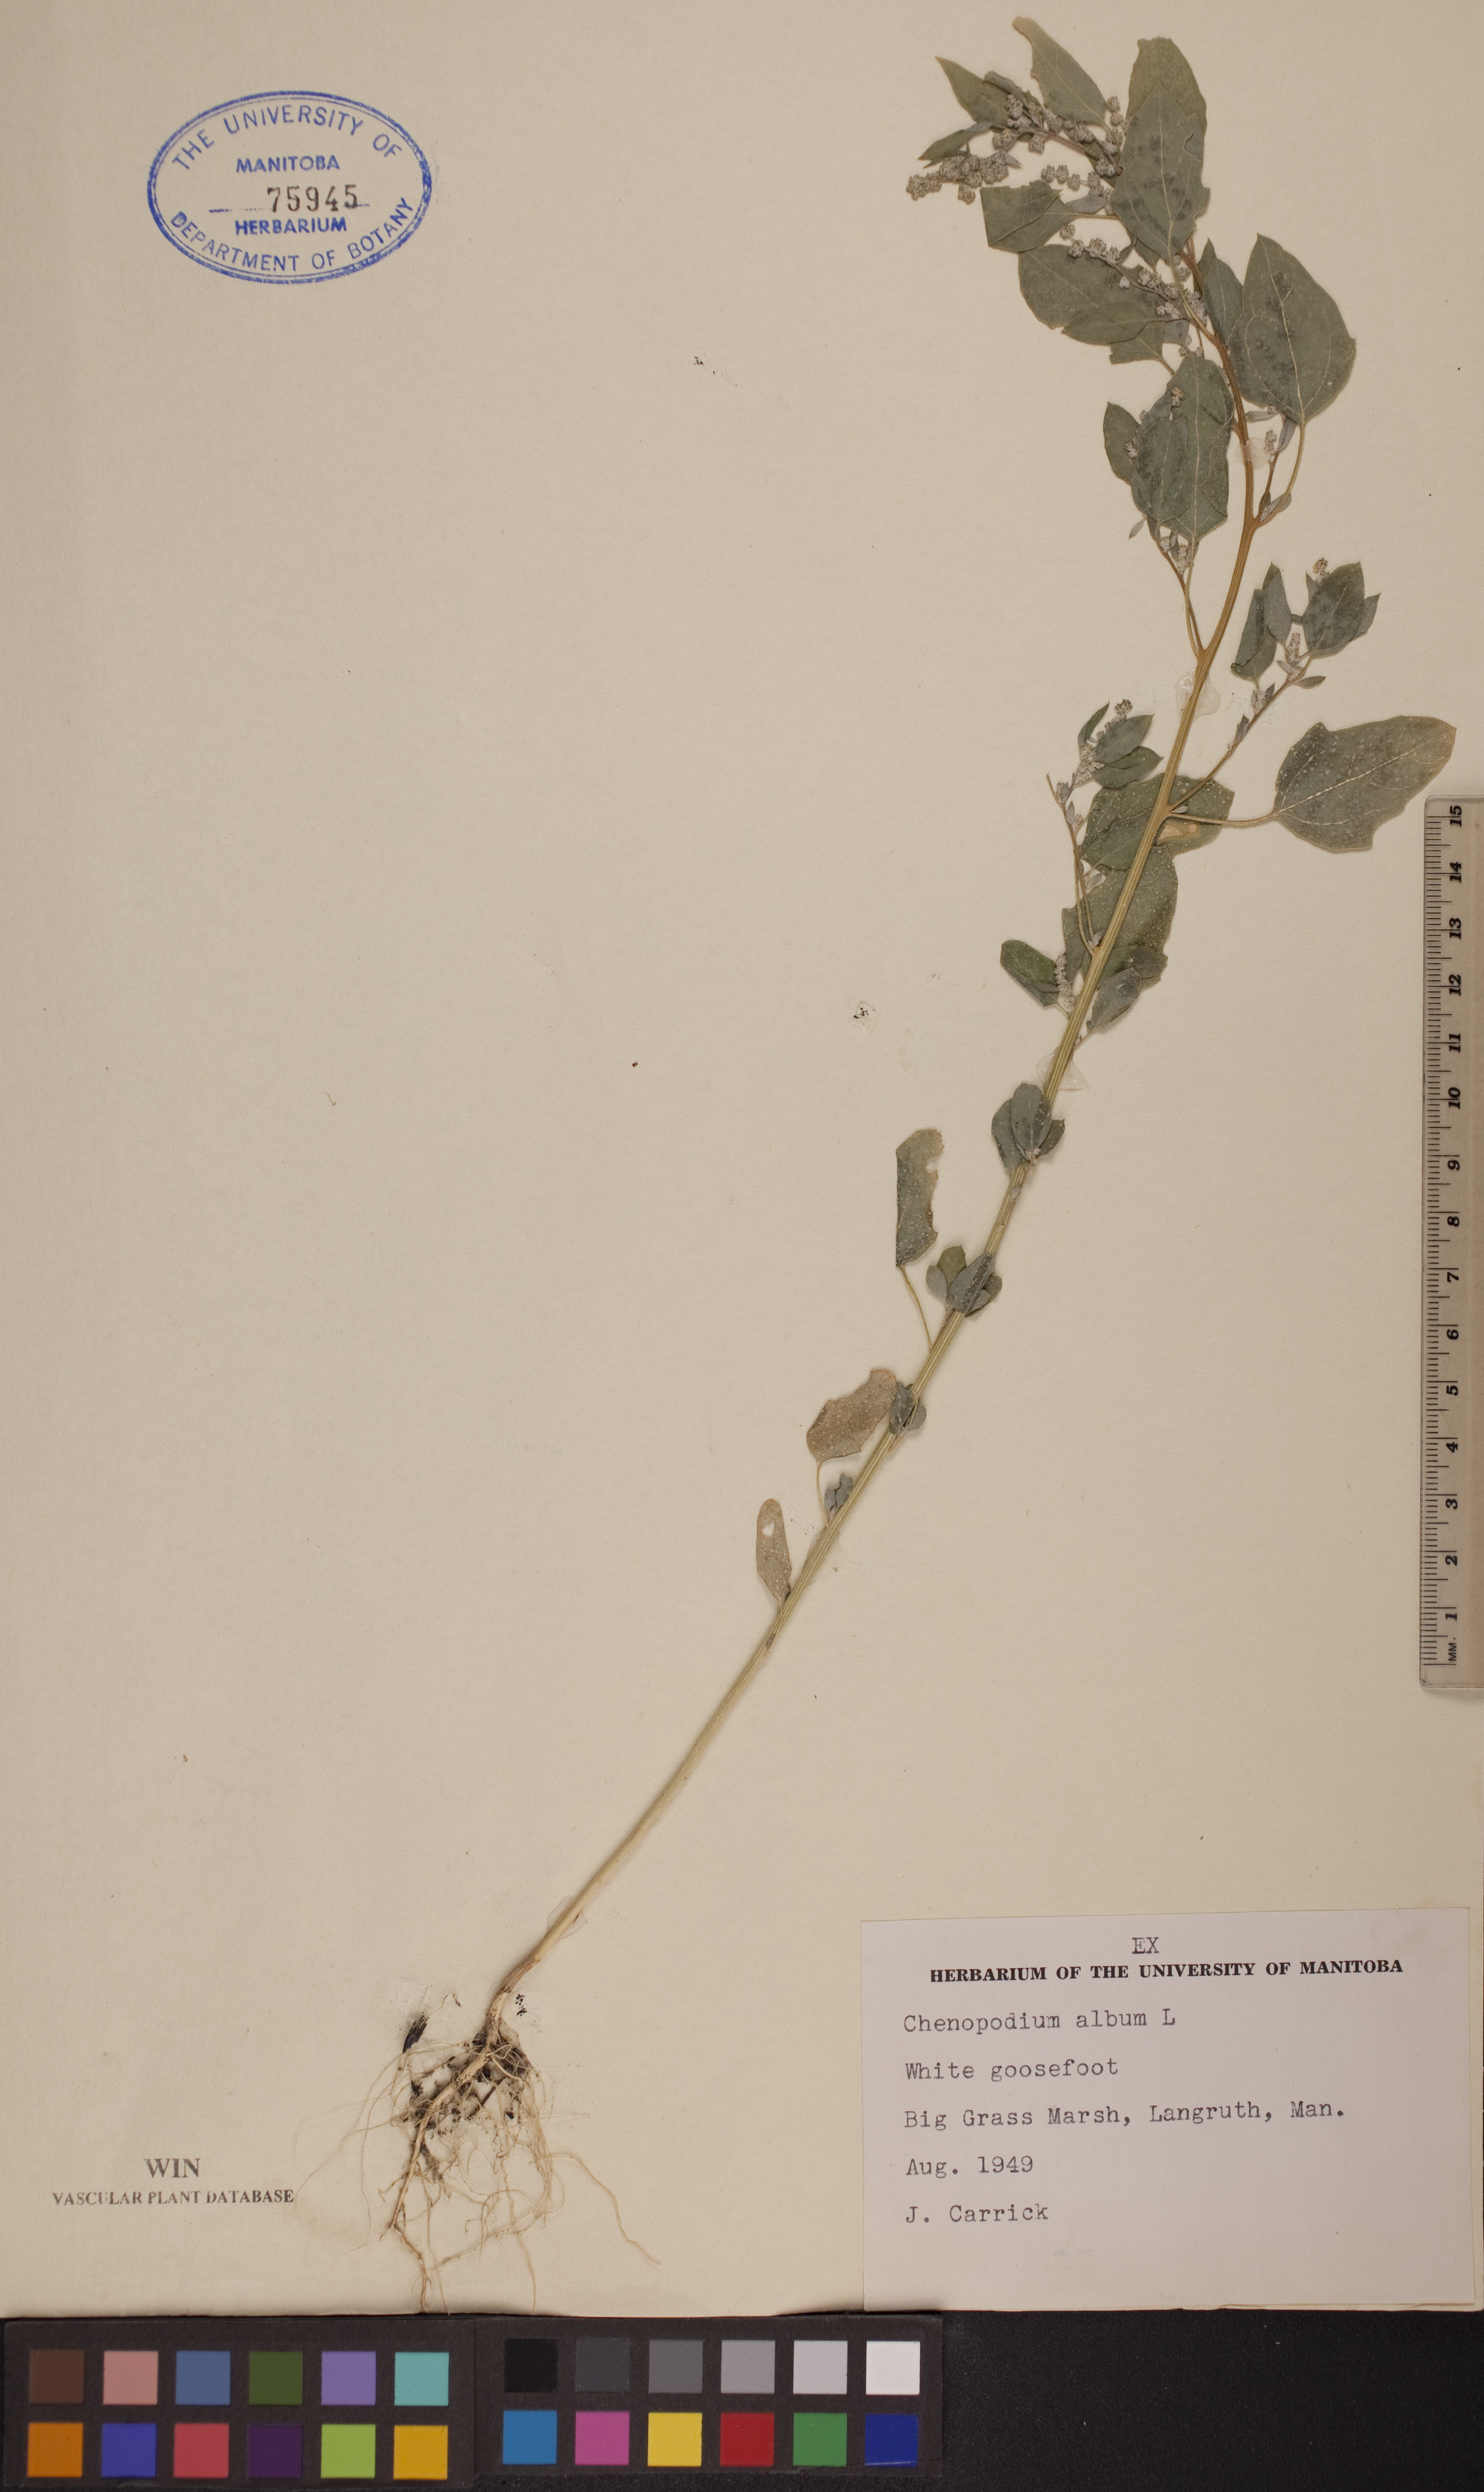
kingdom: Plantae
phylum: Tracheophyta
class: Magnoliopsida
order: Caryophyllales
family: Amaranthaceae
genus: Chenopodium
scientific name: Chenopodium album
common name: Fat-hen
